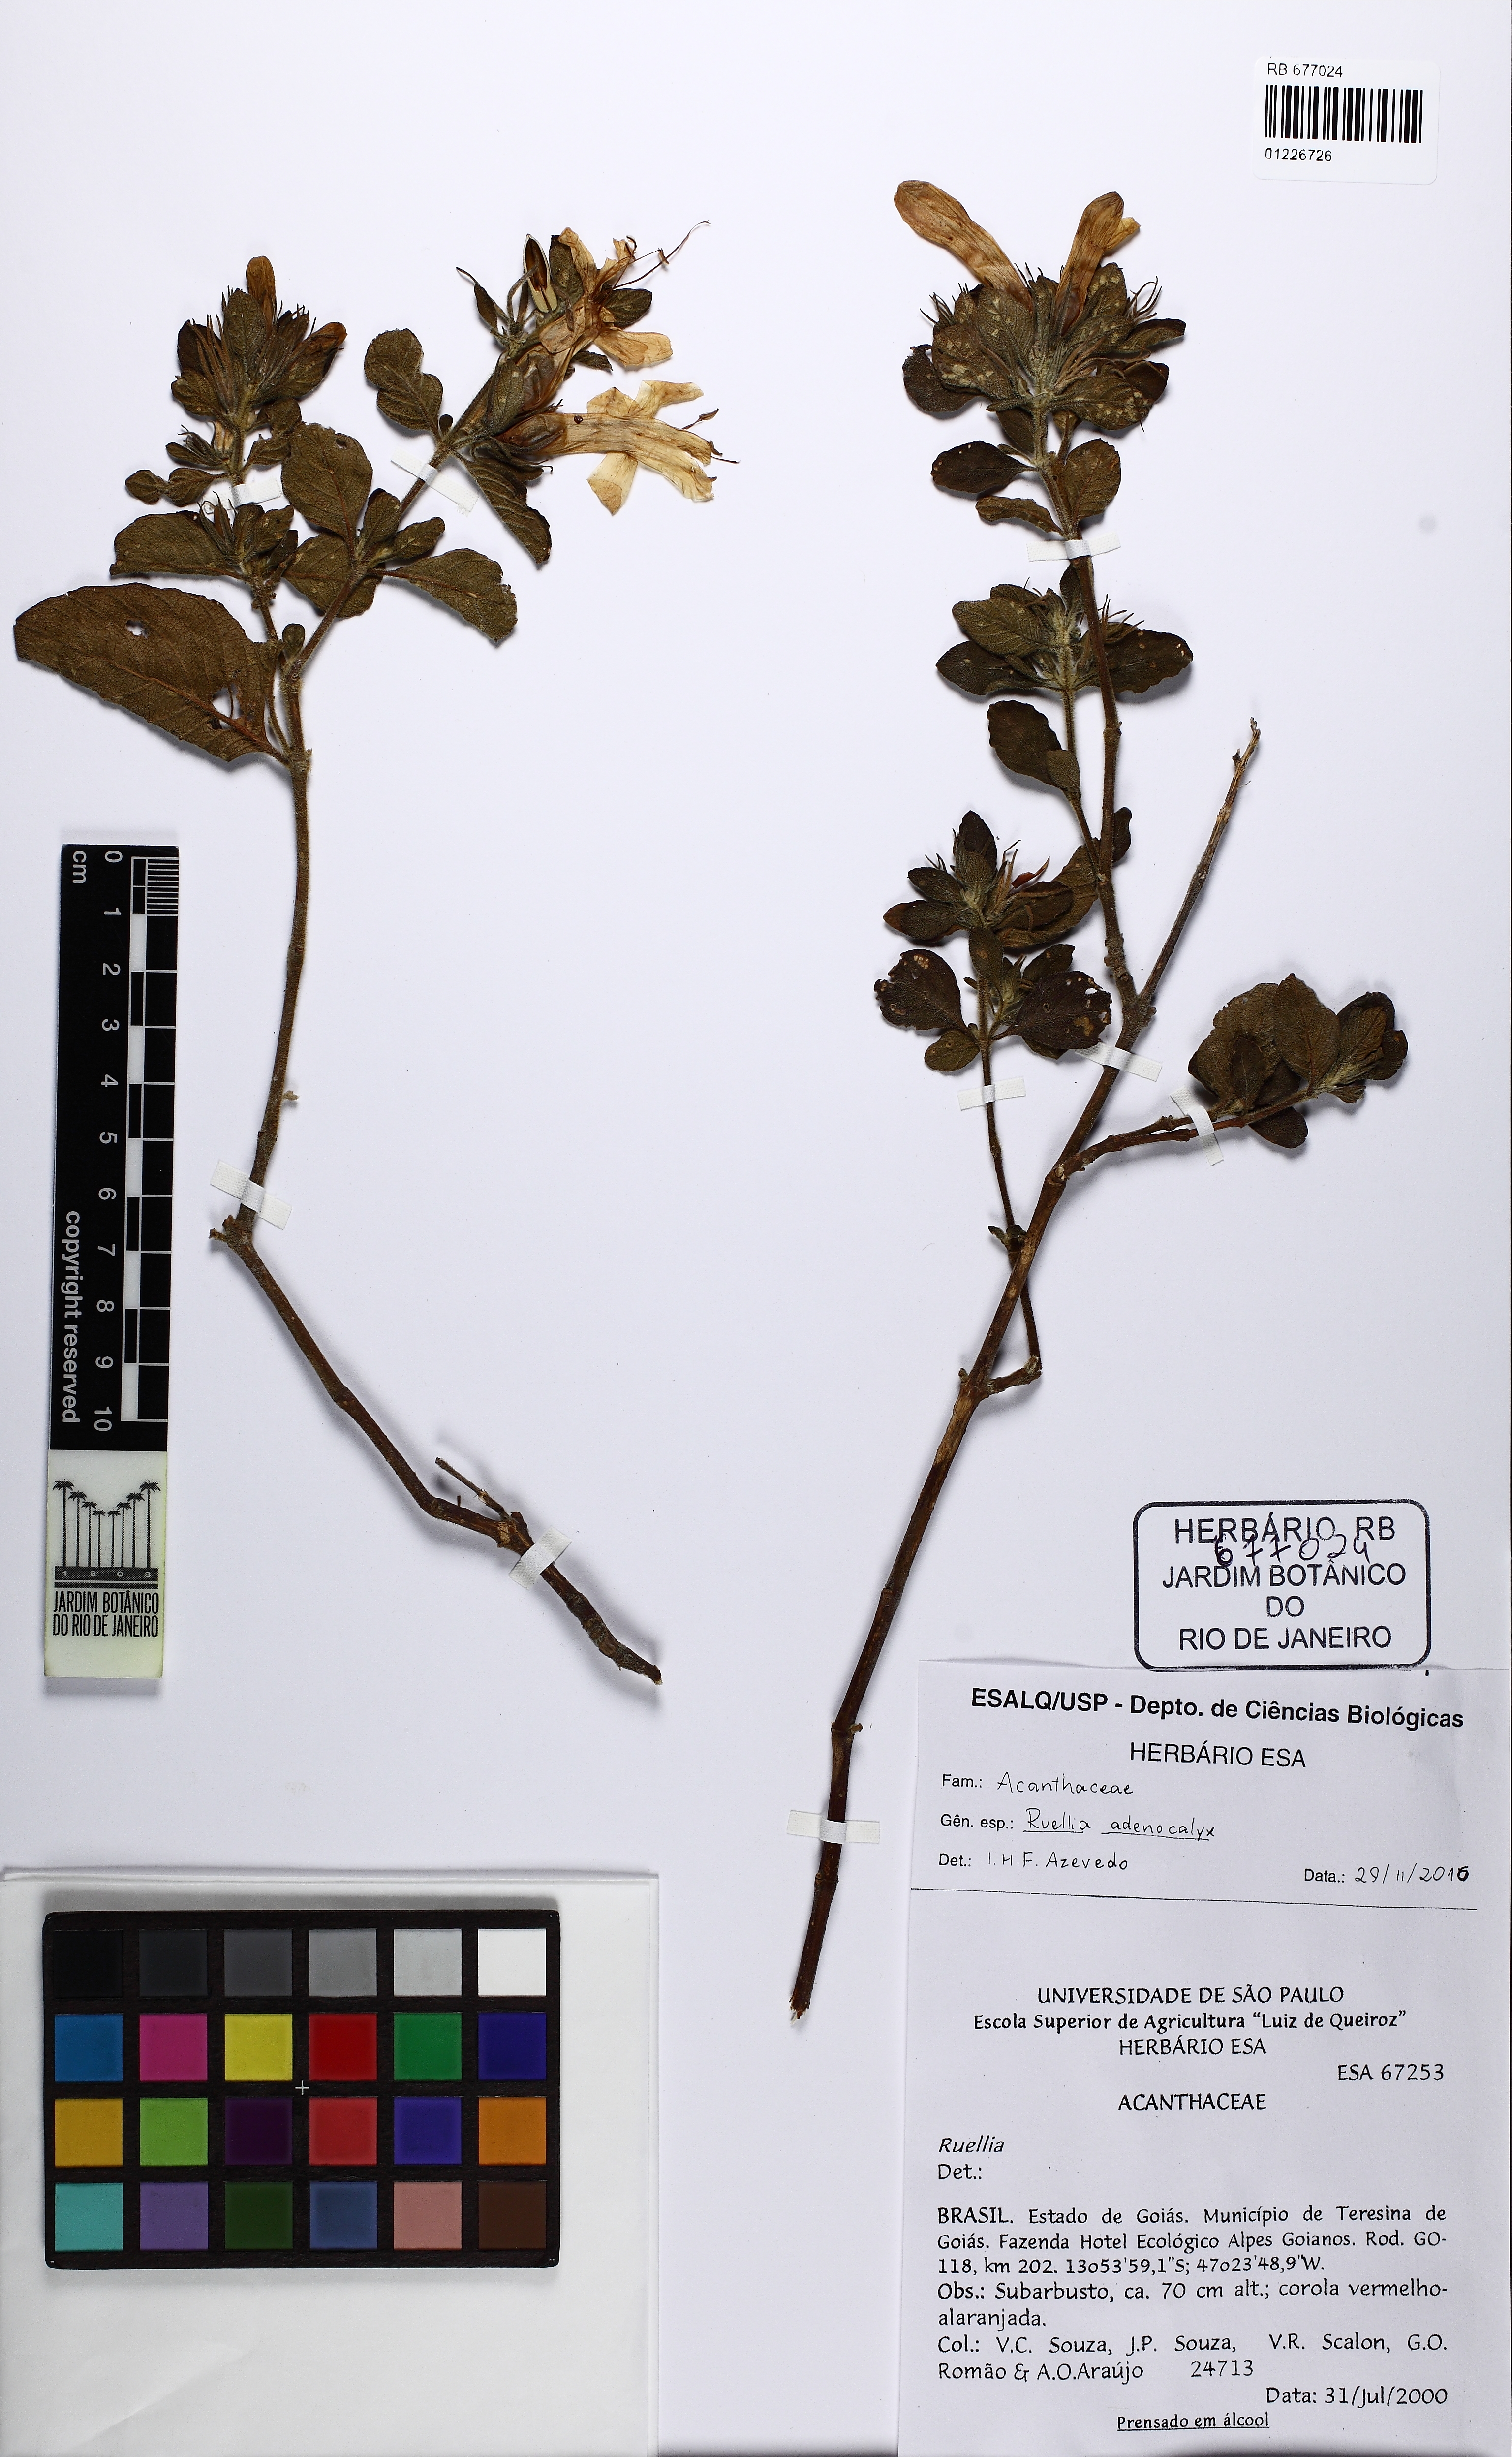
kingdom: Plantae
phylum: Tracheophyta
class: Magnoliopsida
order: Lamiales
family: Acanthaceae
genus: Ruellia
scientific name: Ruellia adenocalyx
